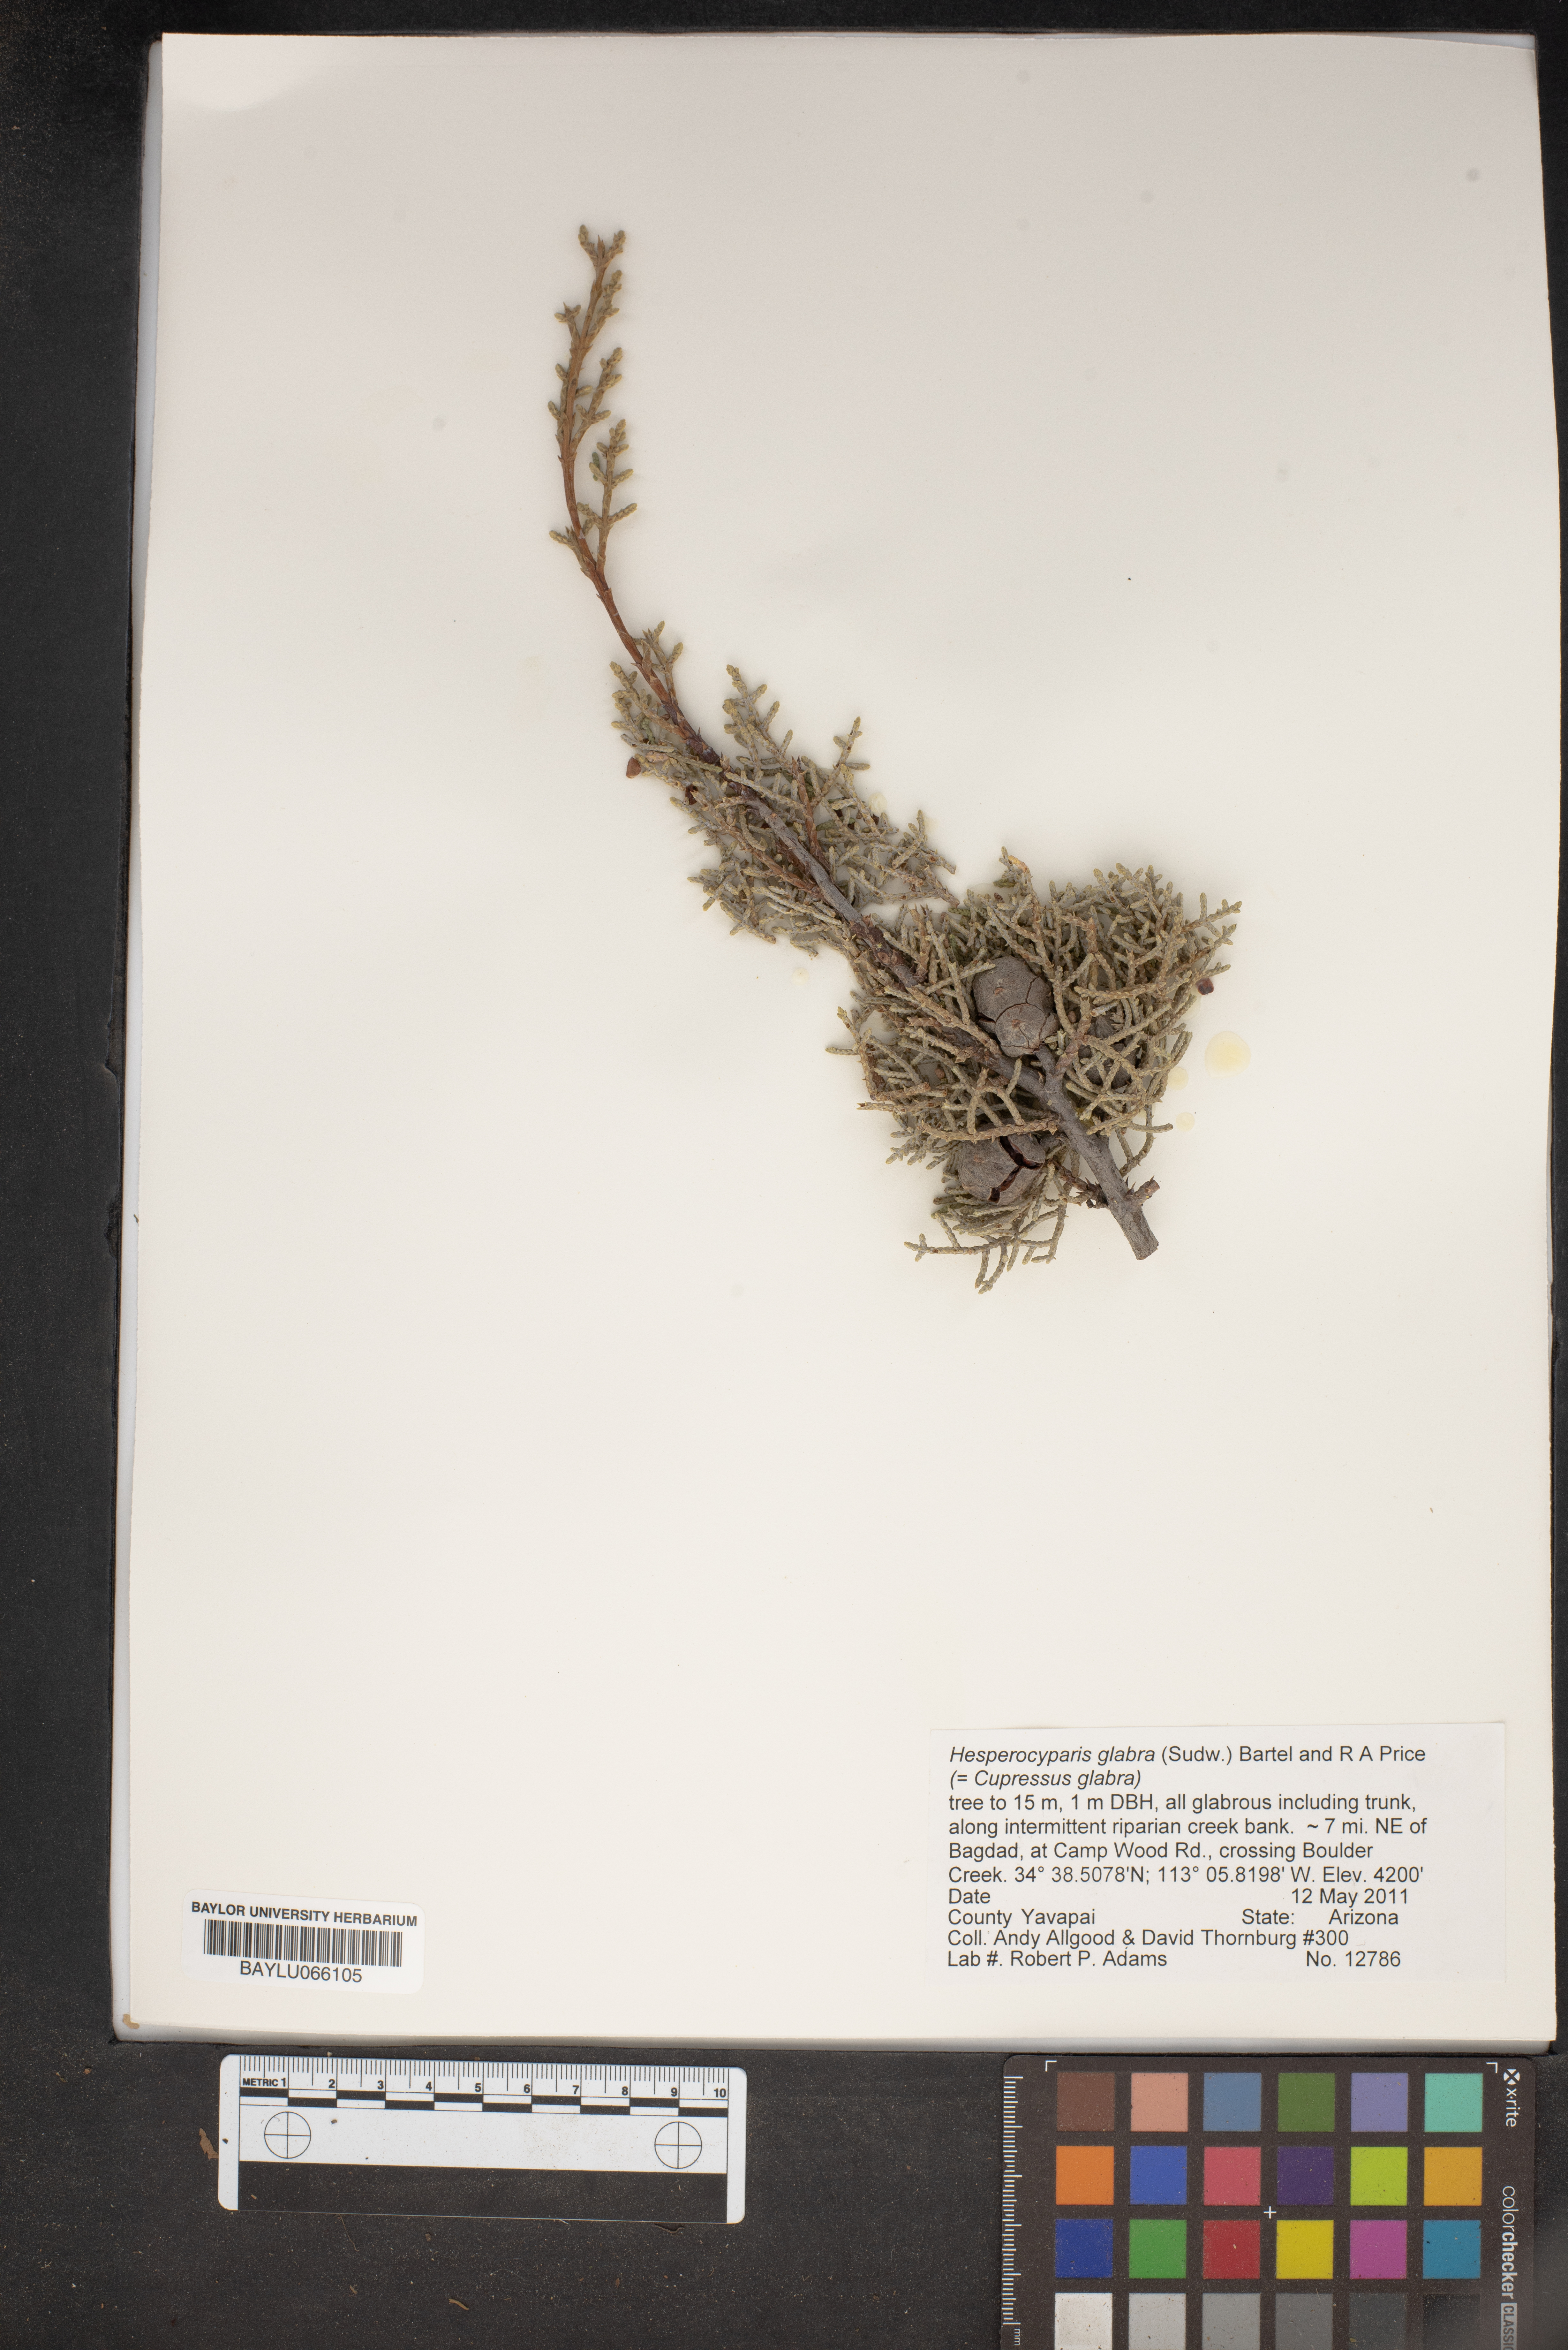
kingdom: Plantae
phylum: Tracheophyta
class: Pinopsida
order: Pinales
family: Cupressaceae
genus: Cupressus
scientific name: Cupressus arizonica
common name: Arizona cypress
